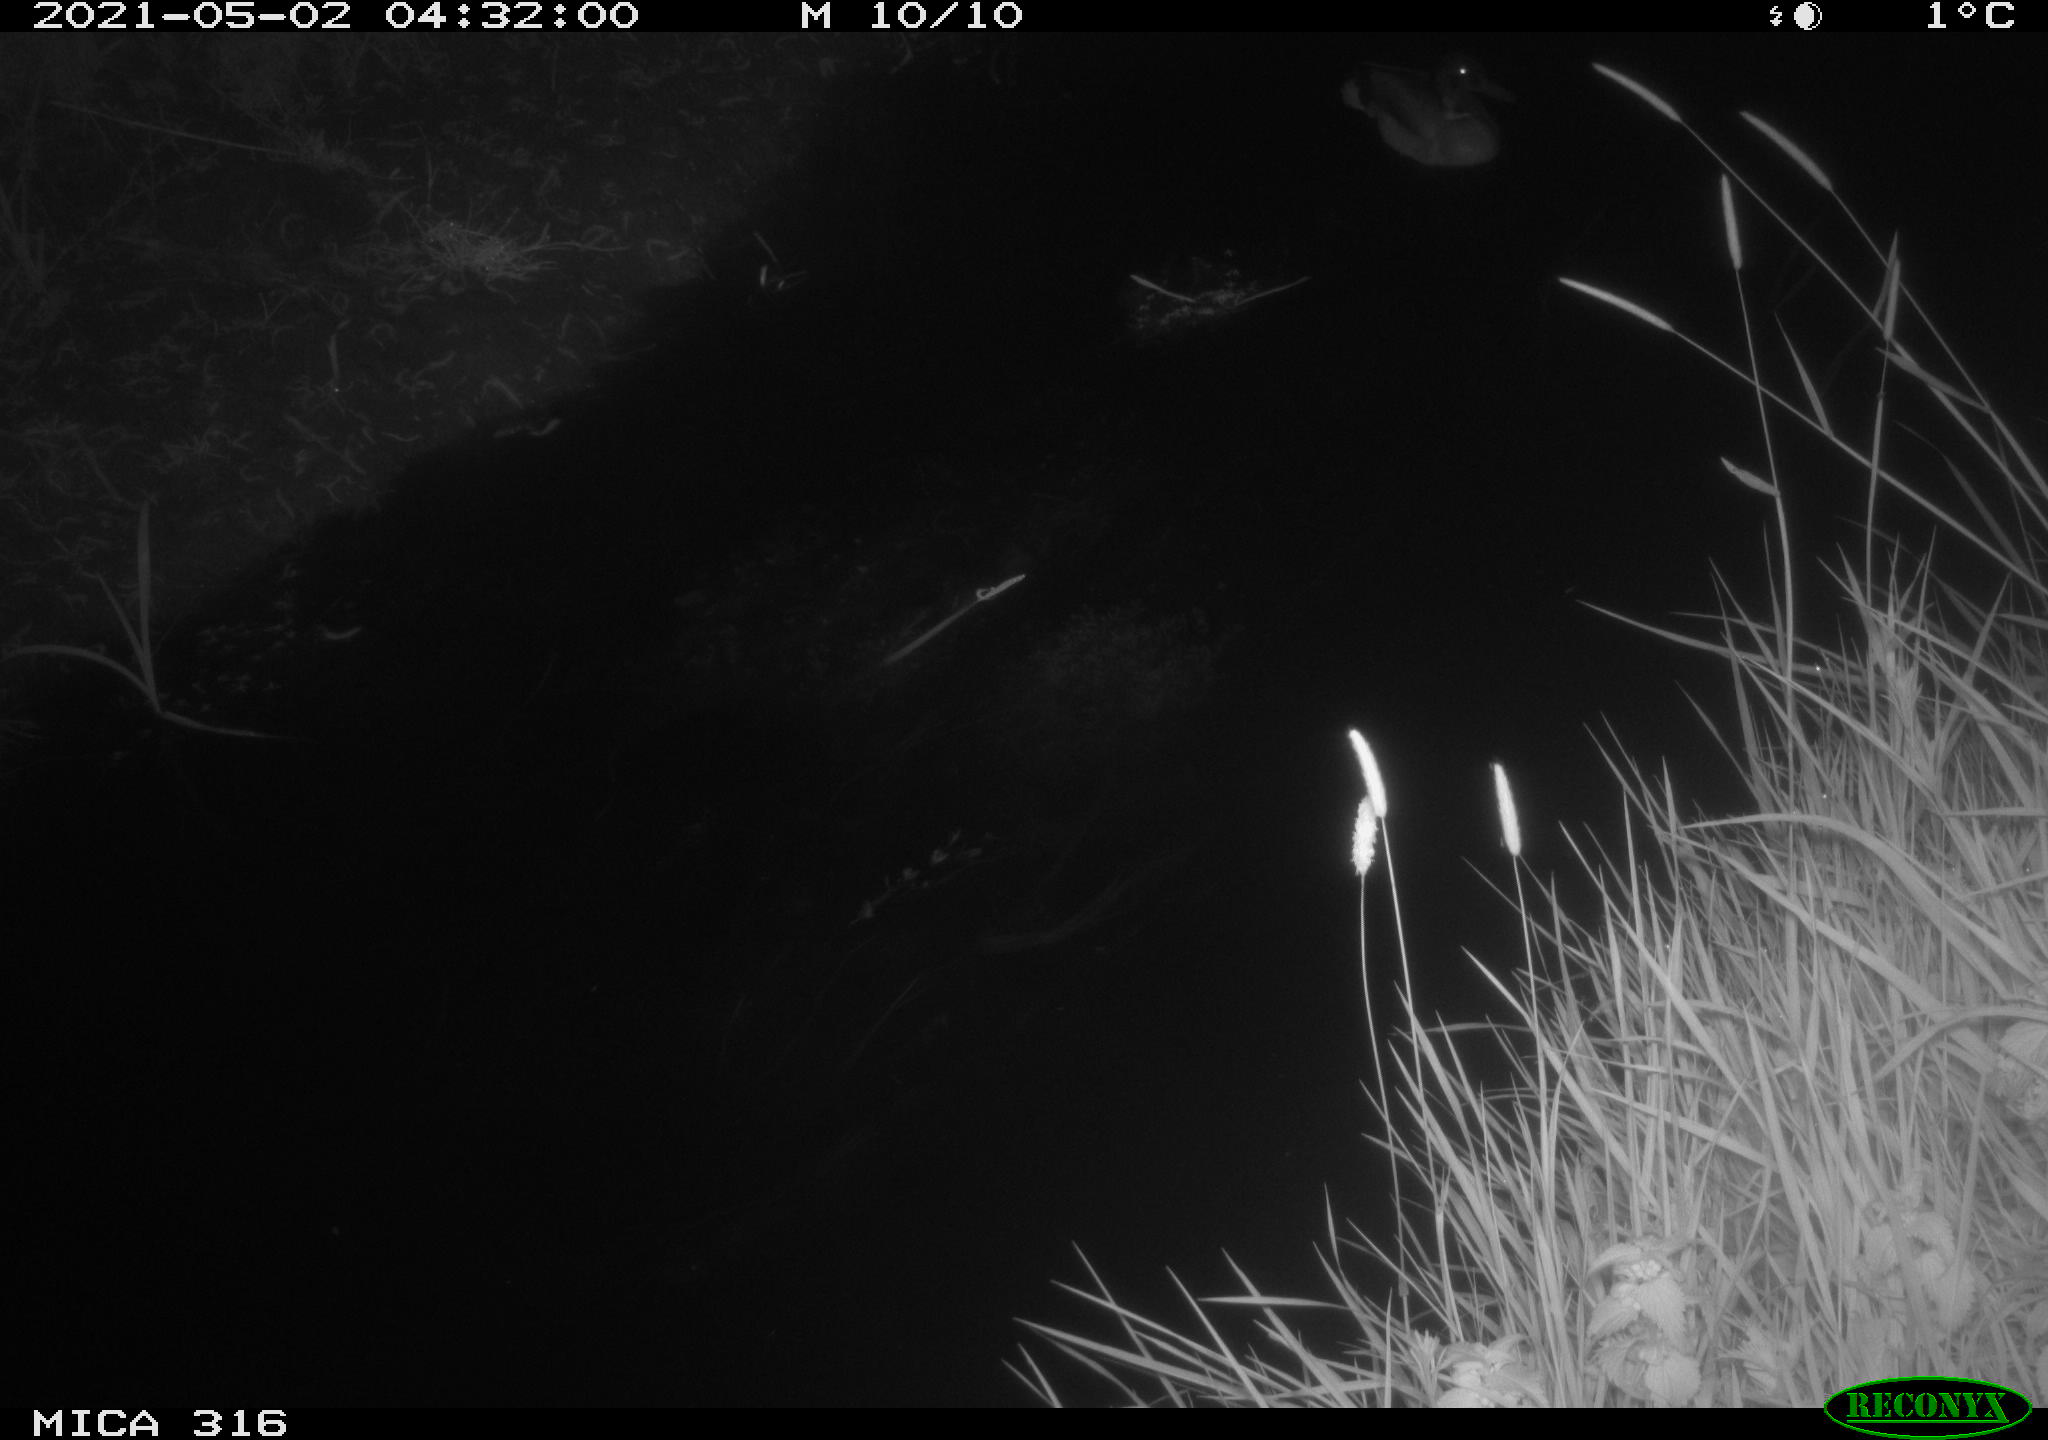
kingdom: Animalia
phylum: Chordata
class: Aves
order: Anseriformes
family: Anatidae
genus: Anas
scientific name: Anas platyrhynchos
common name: Mallard
